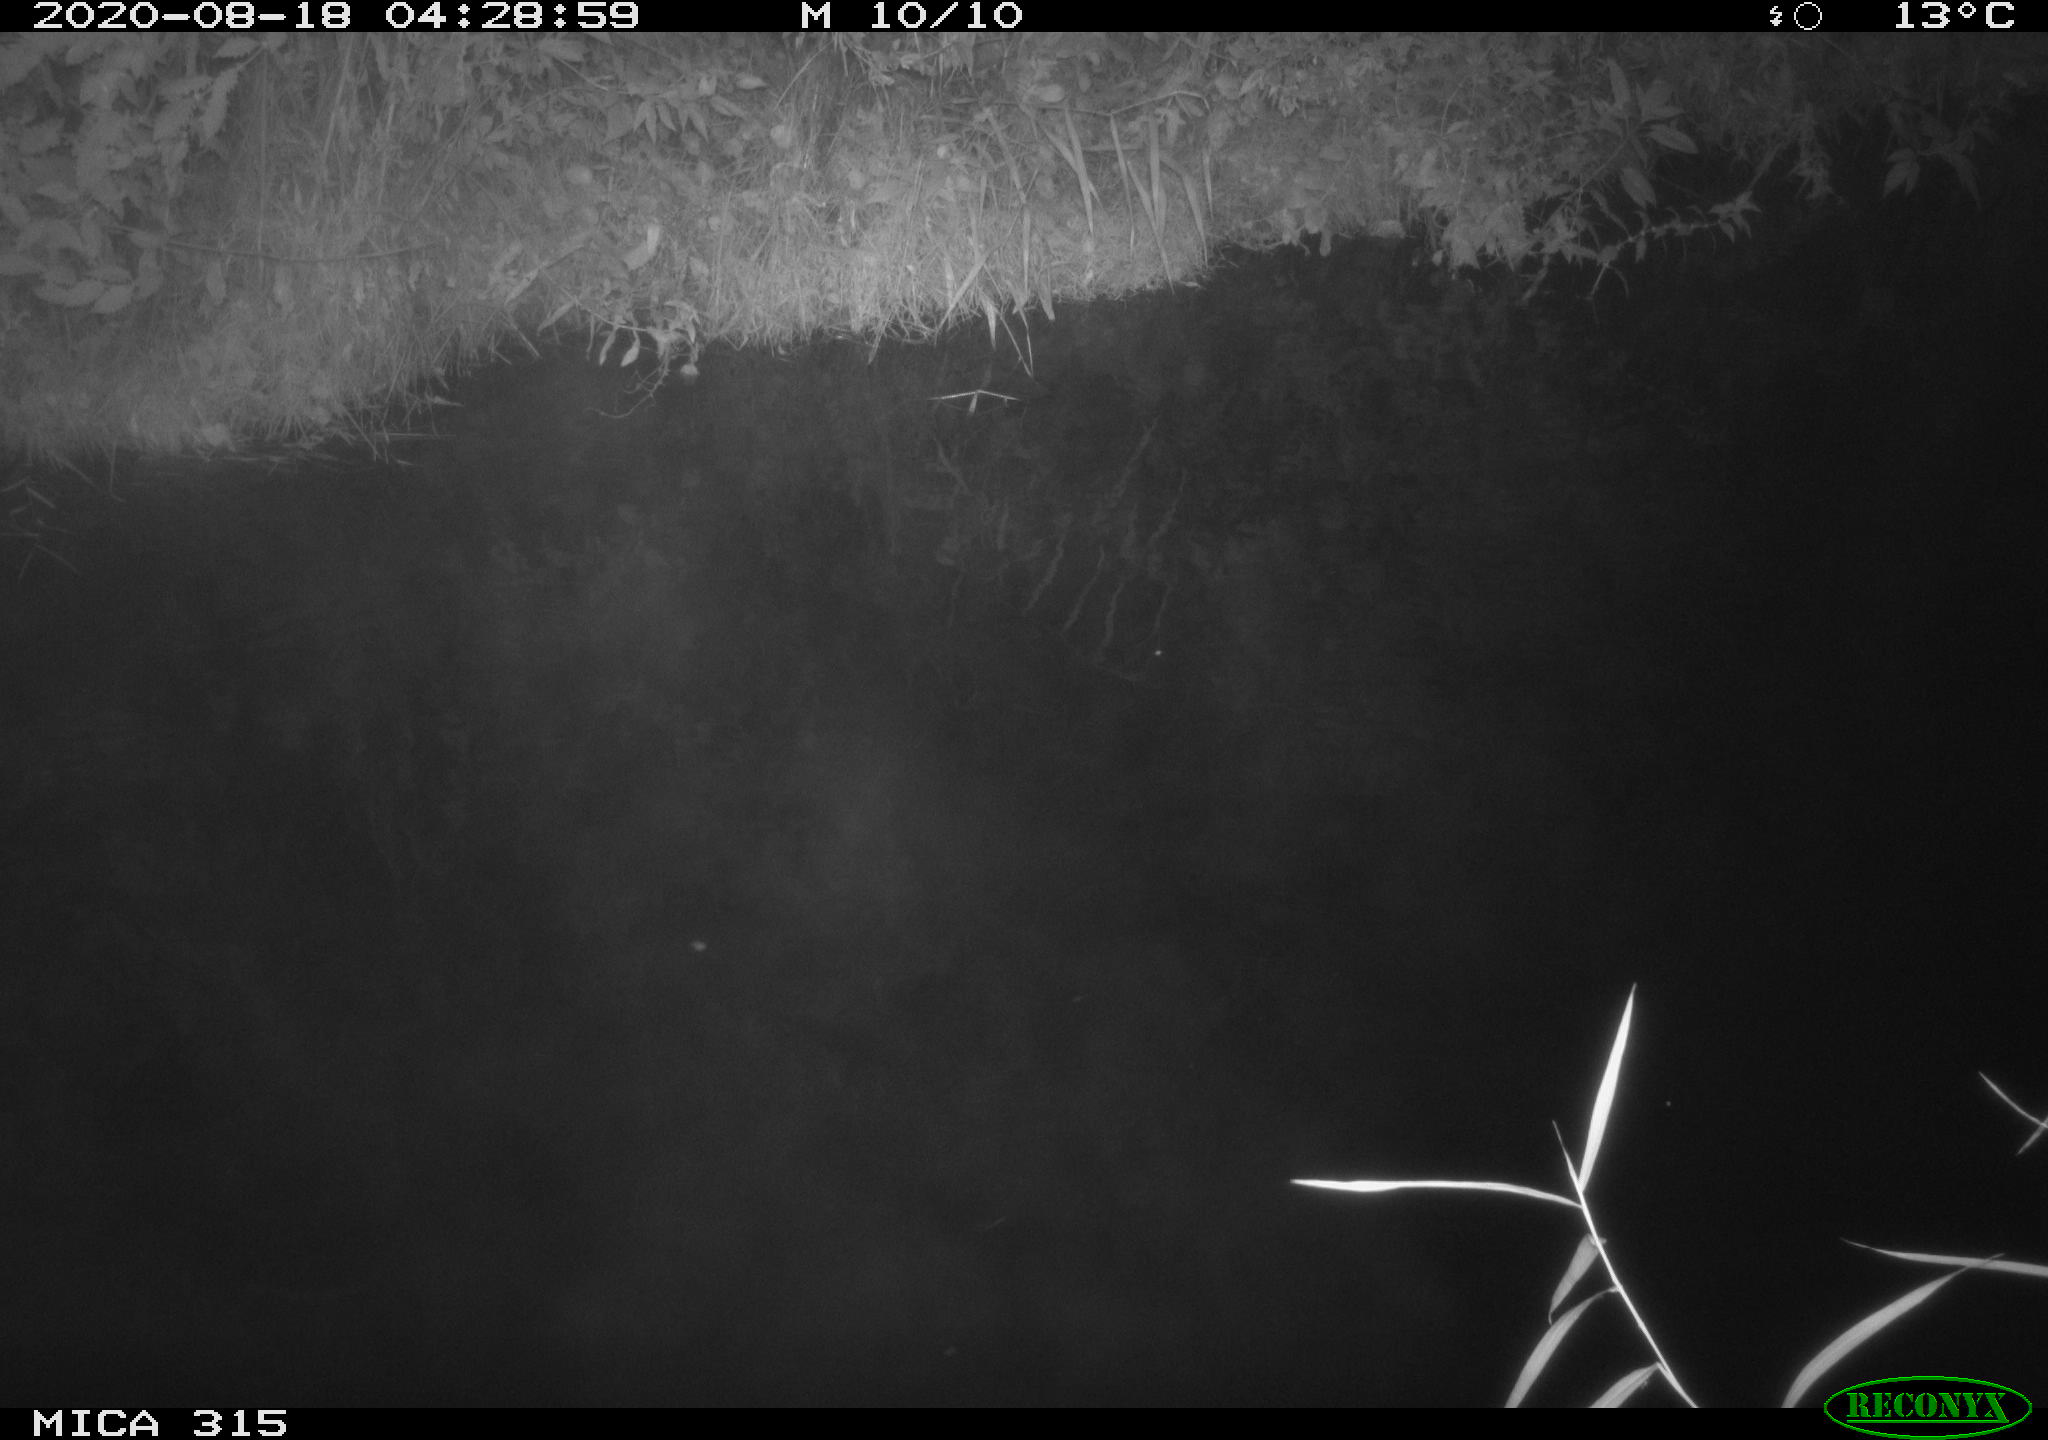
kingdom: Animalia
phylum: Chordata
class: Aves
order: Anseriformes
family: Anatidae
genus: Anas
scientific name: Anas platyrhynchos
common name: Mallard
